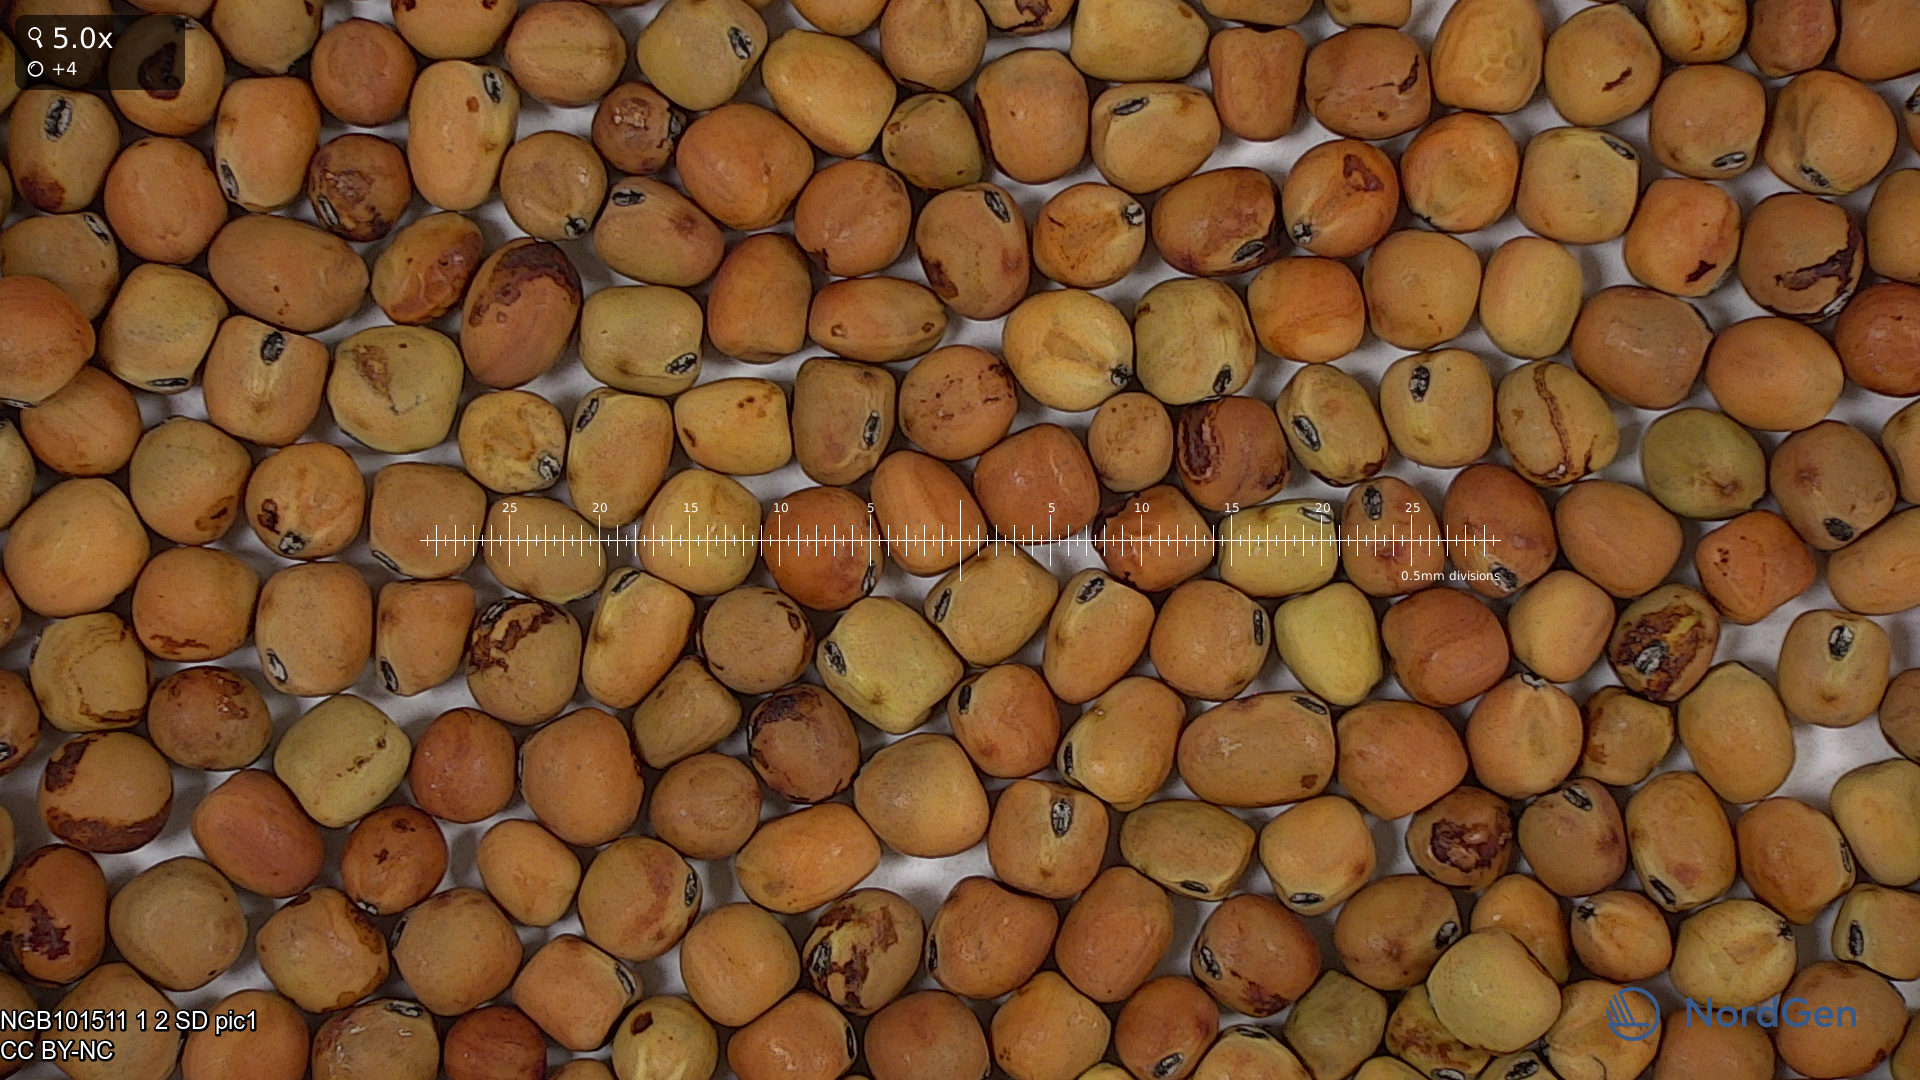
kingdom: Plantae
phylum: Tracheophyta
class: Magnoliopsida
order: Fabales
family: Fabaceae
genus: Lathyrus
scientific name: Lathyrus oleraceus
